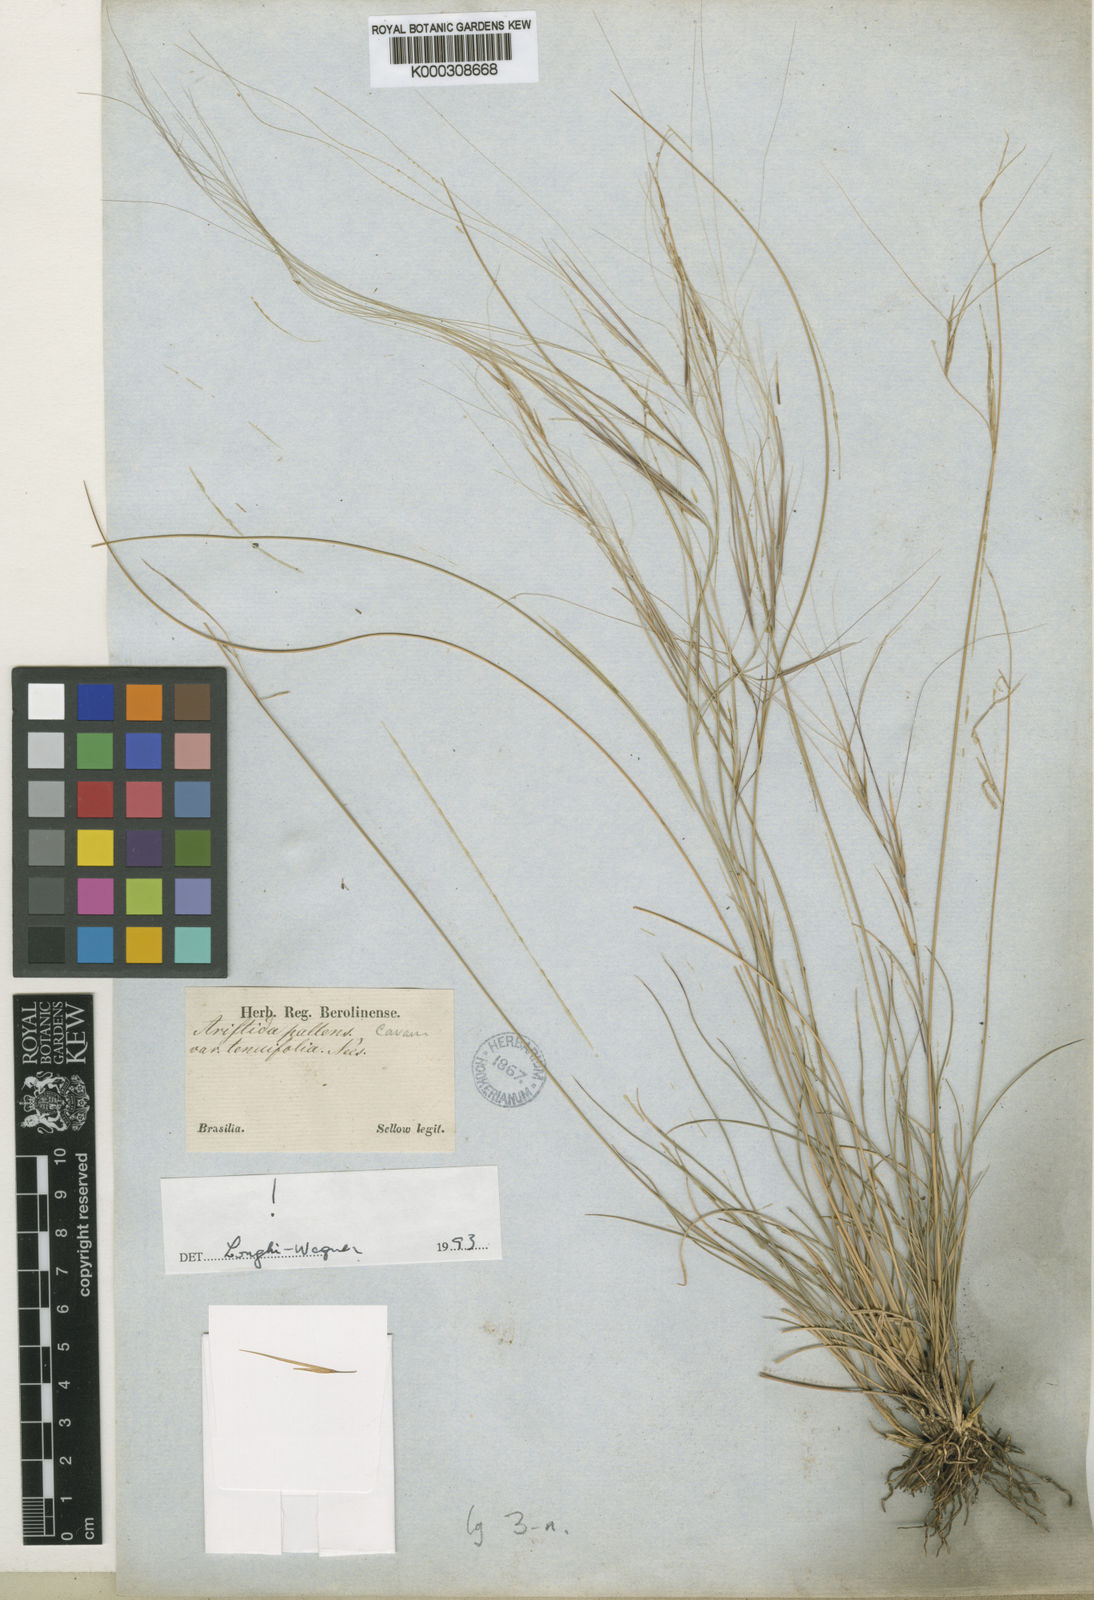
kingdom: Plantae
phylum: Tracheophyta
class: Liliopsida
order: Poales
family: Poaceae
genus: Aristida
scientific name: Aristida venustula
